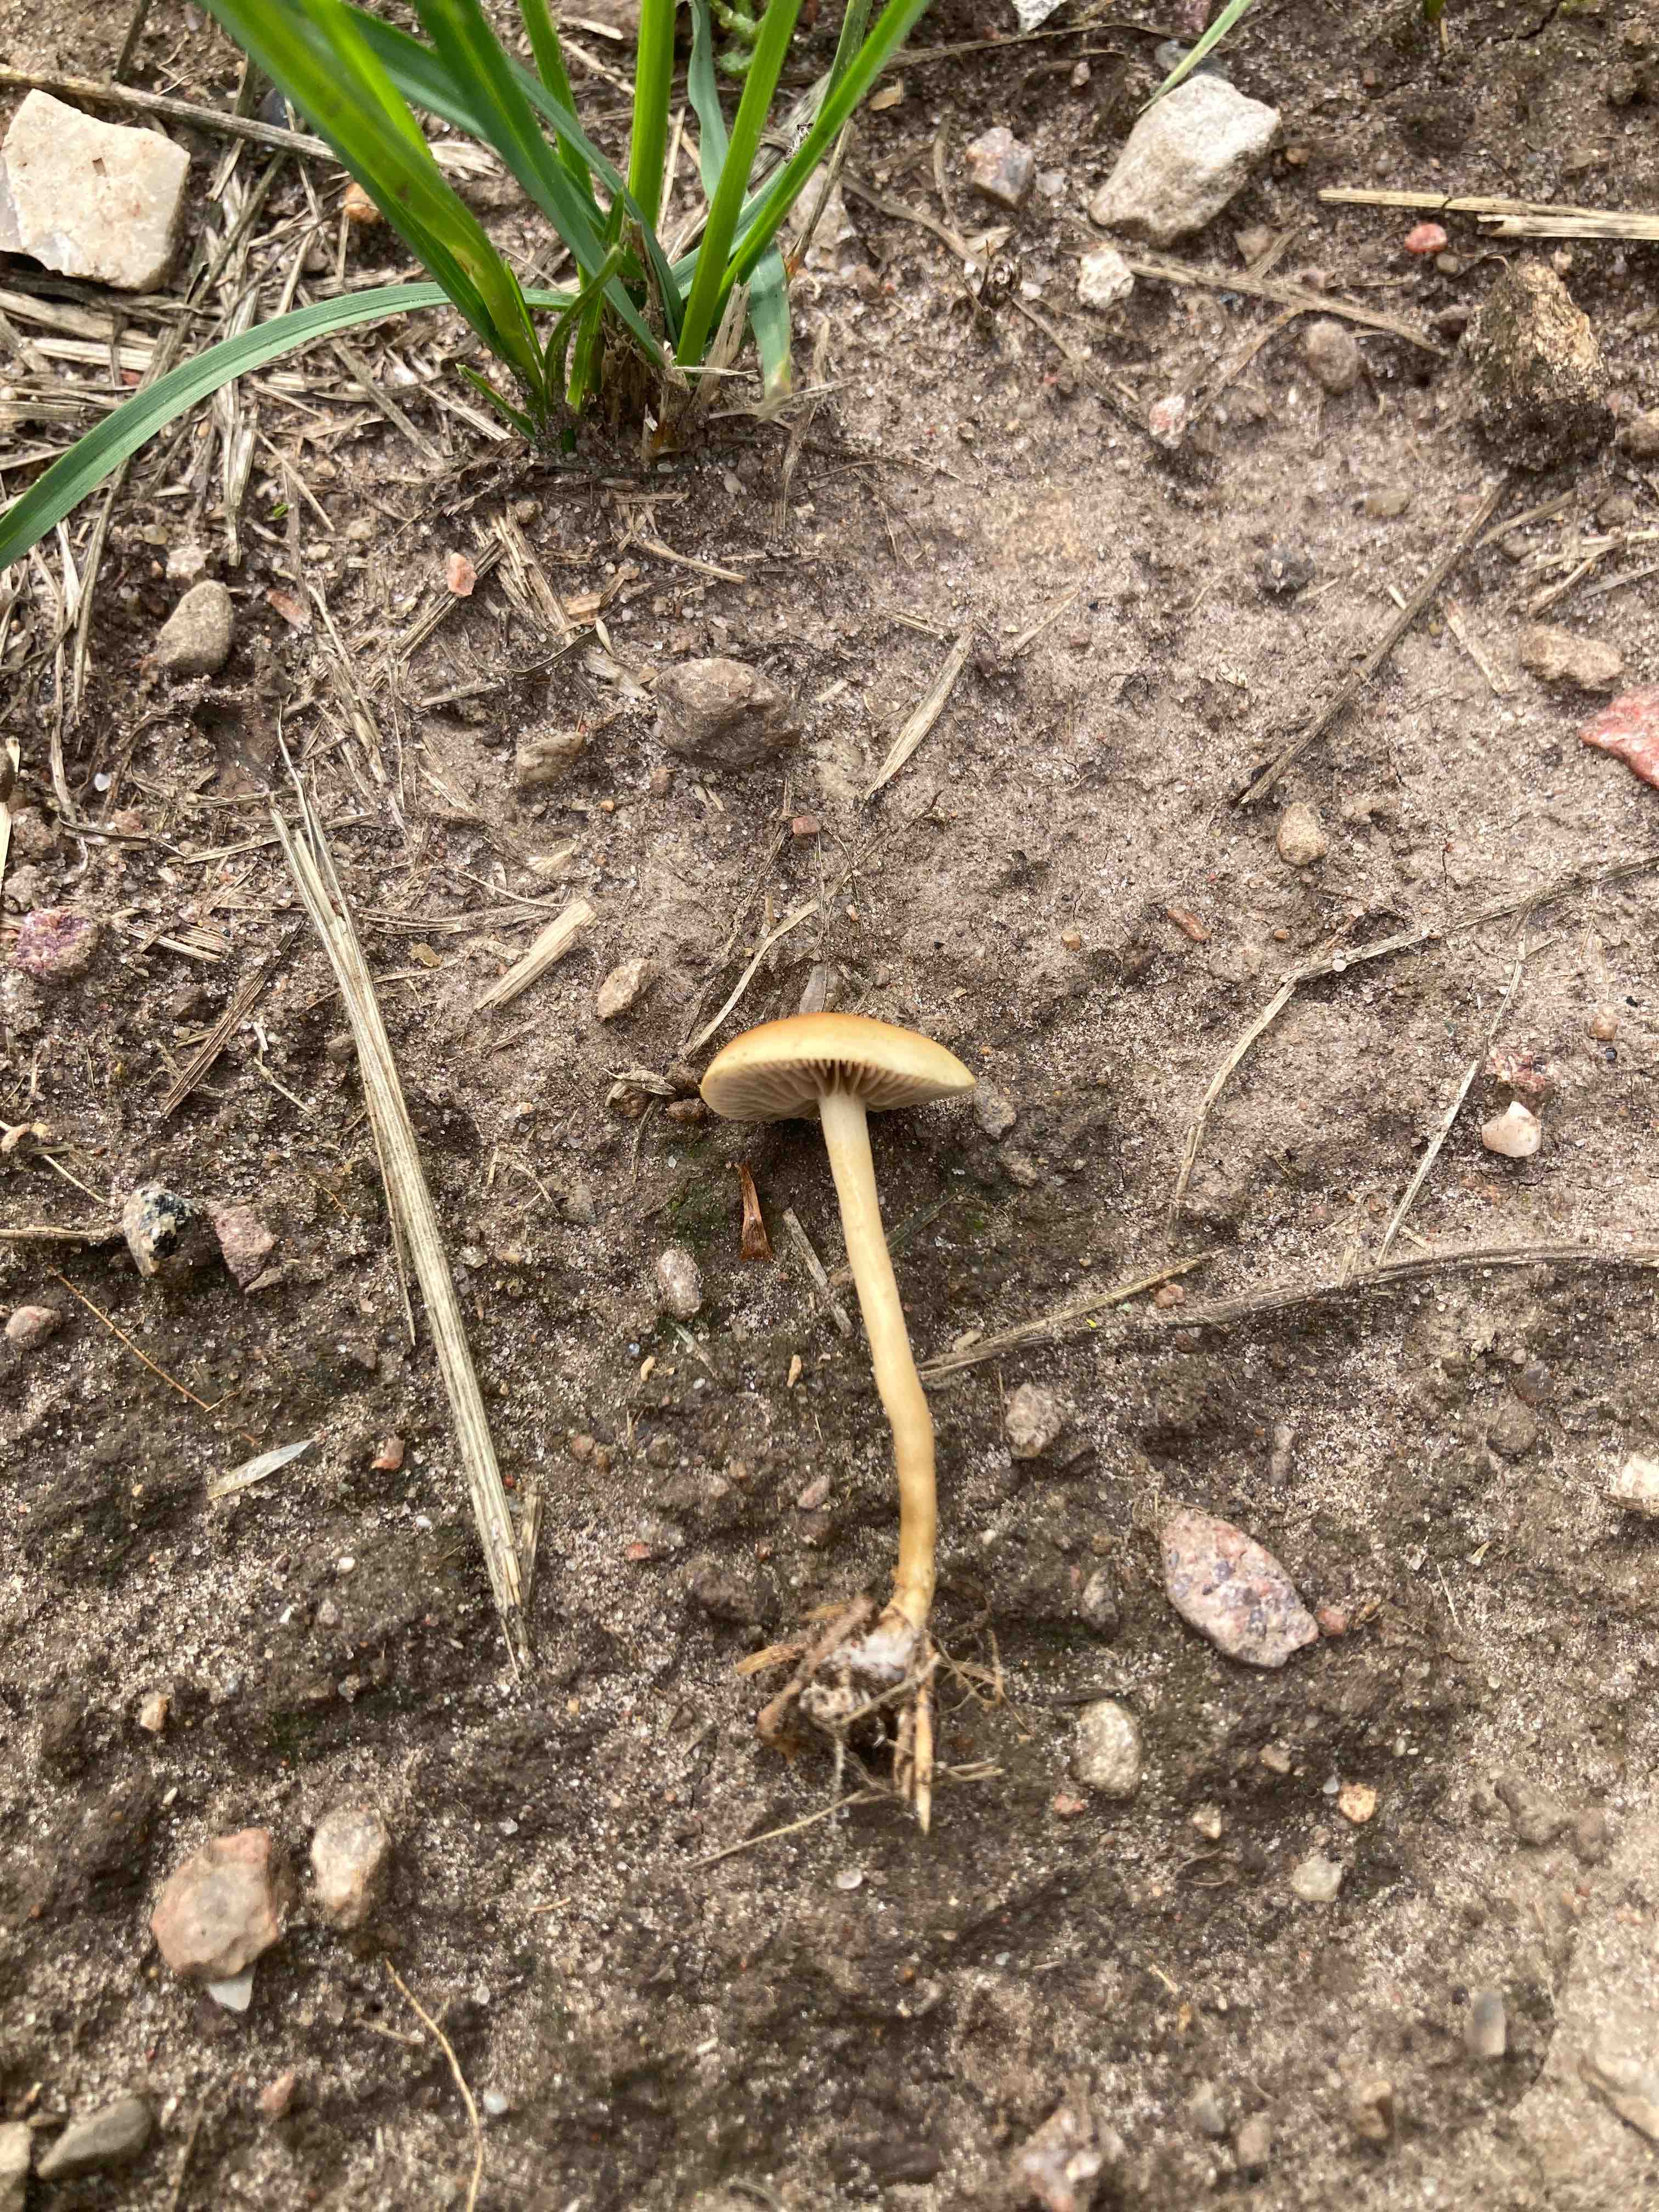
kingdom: Fungi
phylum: Basidiomycota
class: Agaricomycetes
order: Agaricales
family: Strophariaceae
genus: Agrocybe
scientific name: Agrocybe pediades
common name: almindelig agerhat
